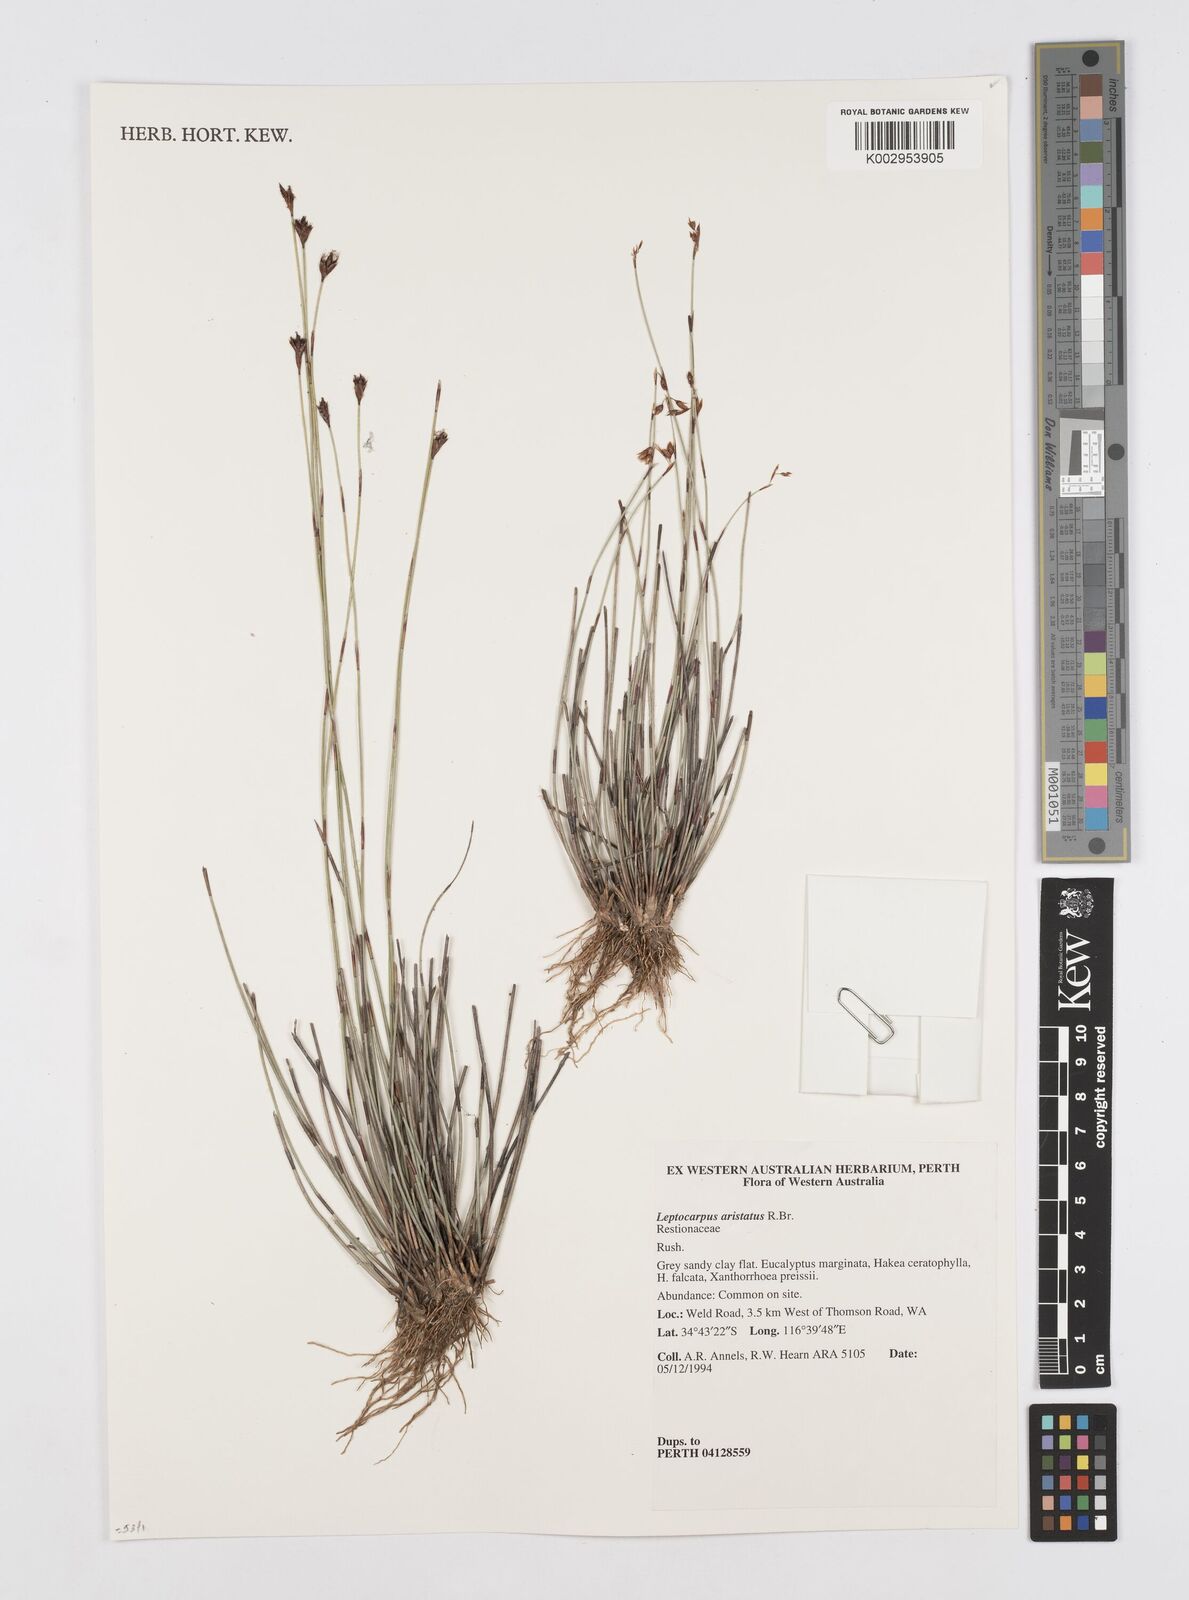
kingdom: Plantae
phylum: Tracheophyta
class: Liliopsida
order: Poales
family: Restionaceae
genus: Chaetanthus
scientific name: Chaetanthus aristatus
